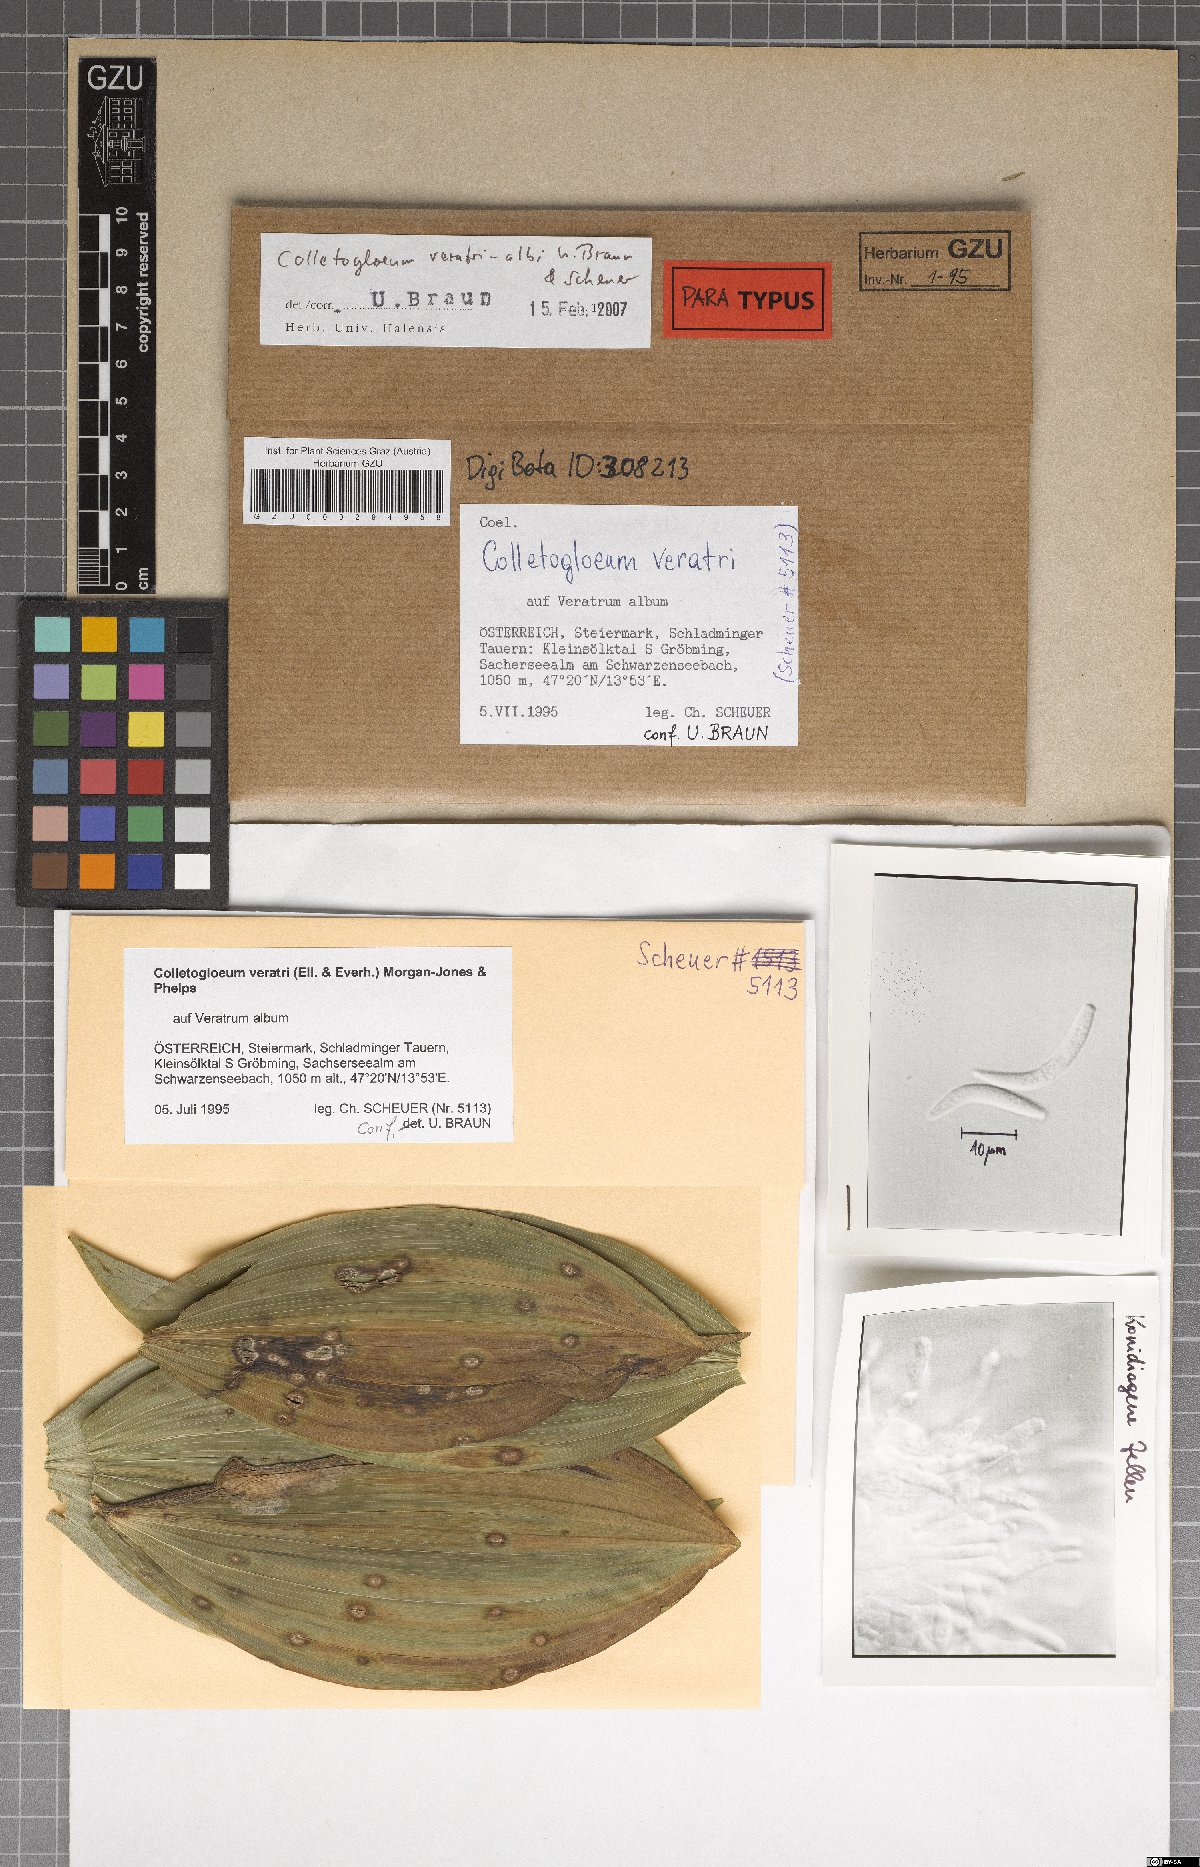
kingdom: Fungi
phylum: Ascomycota
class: Dothideomycetes
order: Mycosphaerellales
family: Mycosphaerellaceae
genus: Colletogloeum
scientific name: Colletogloeum veratri-albi
